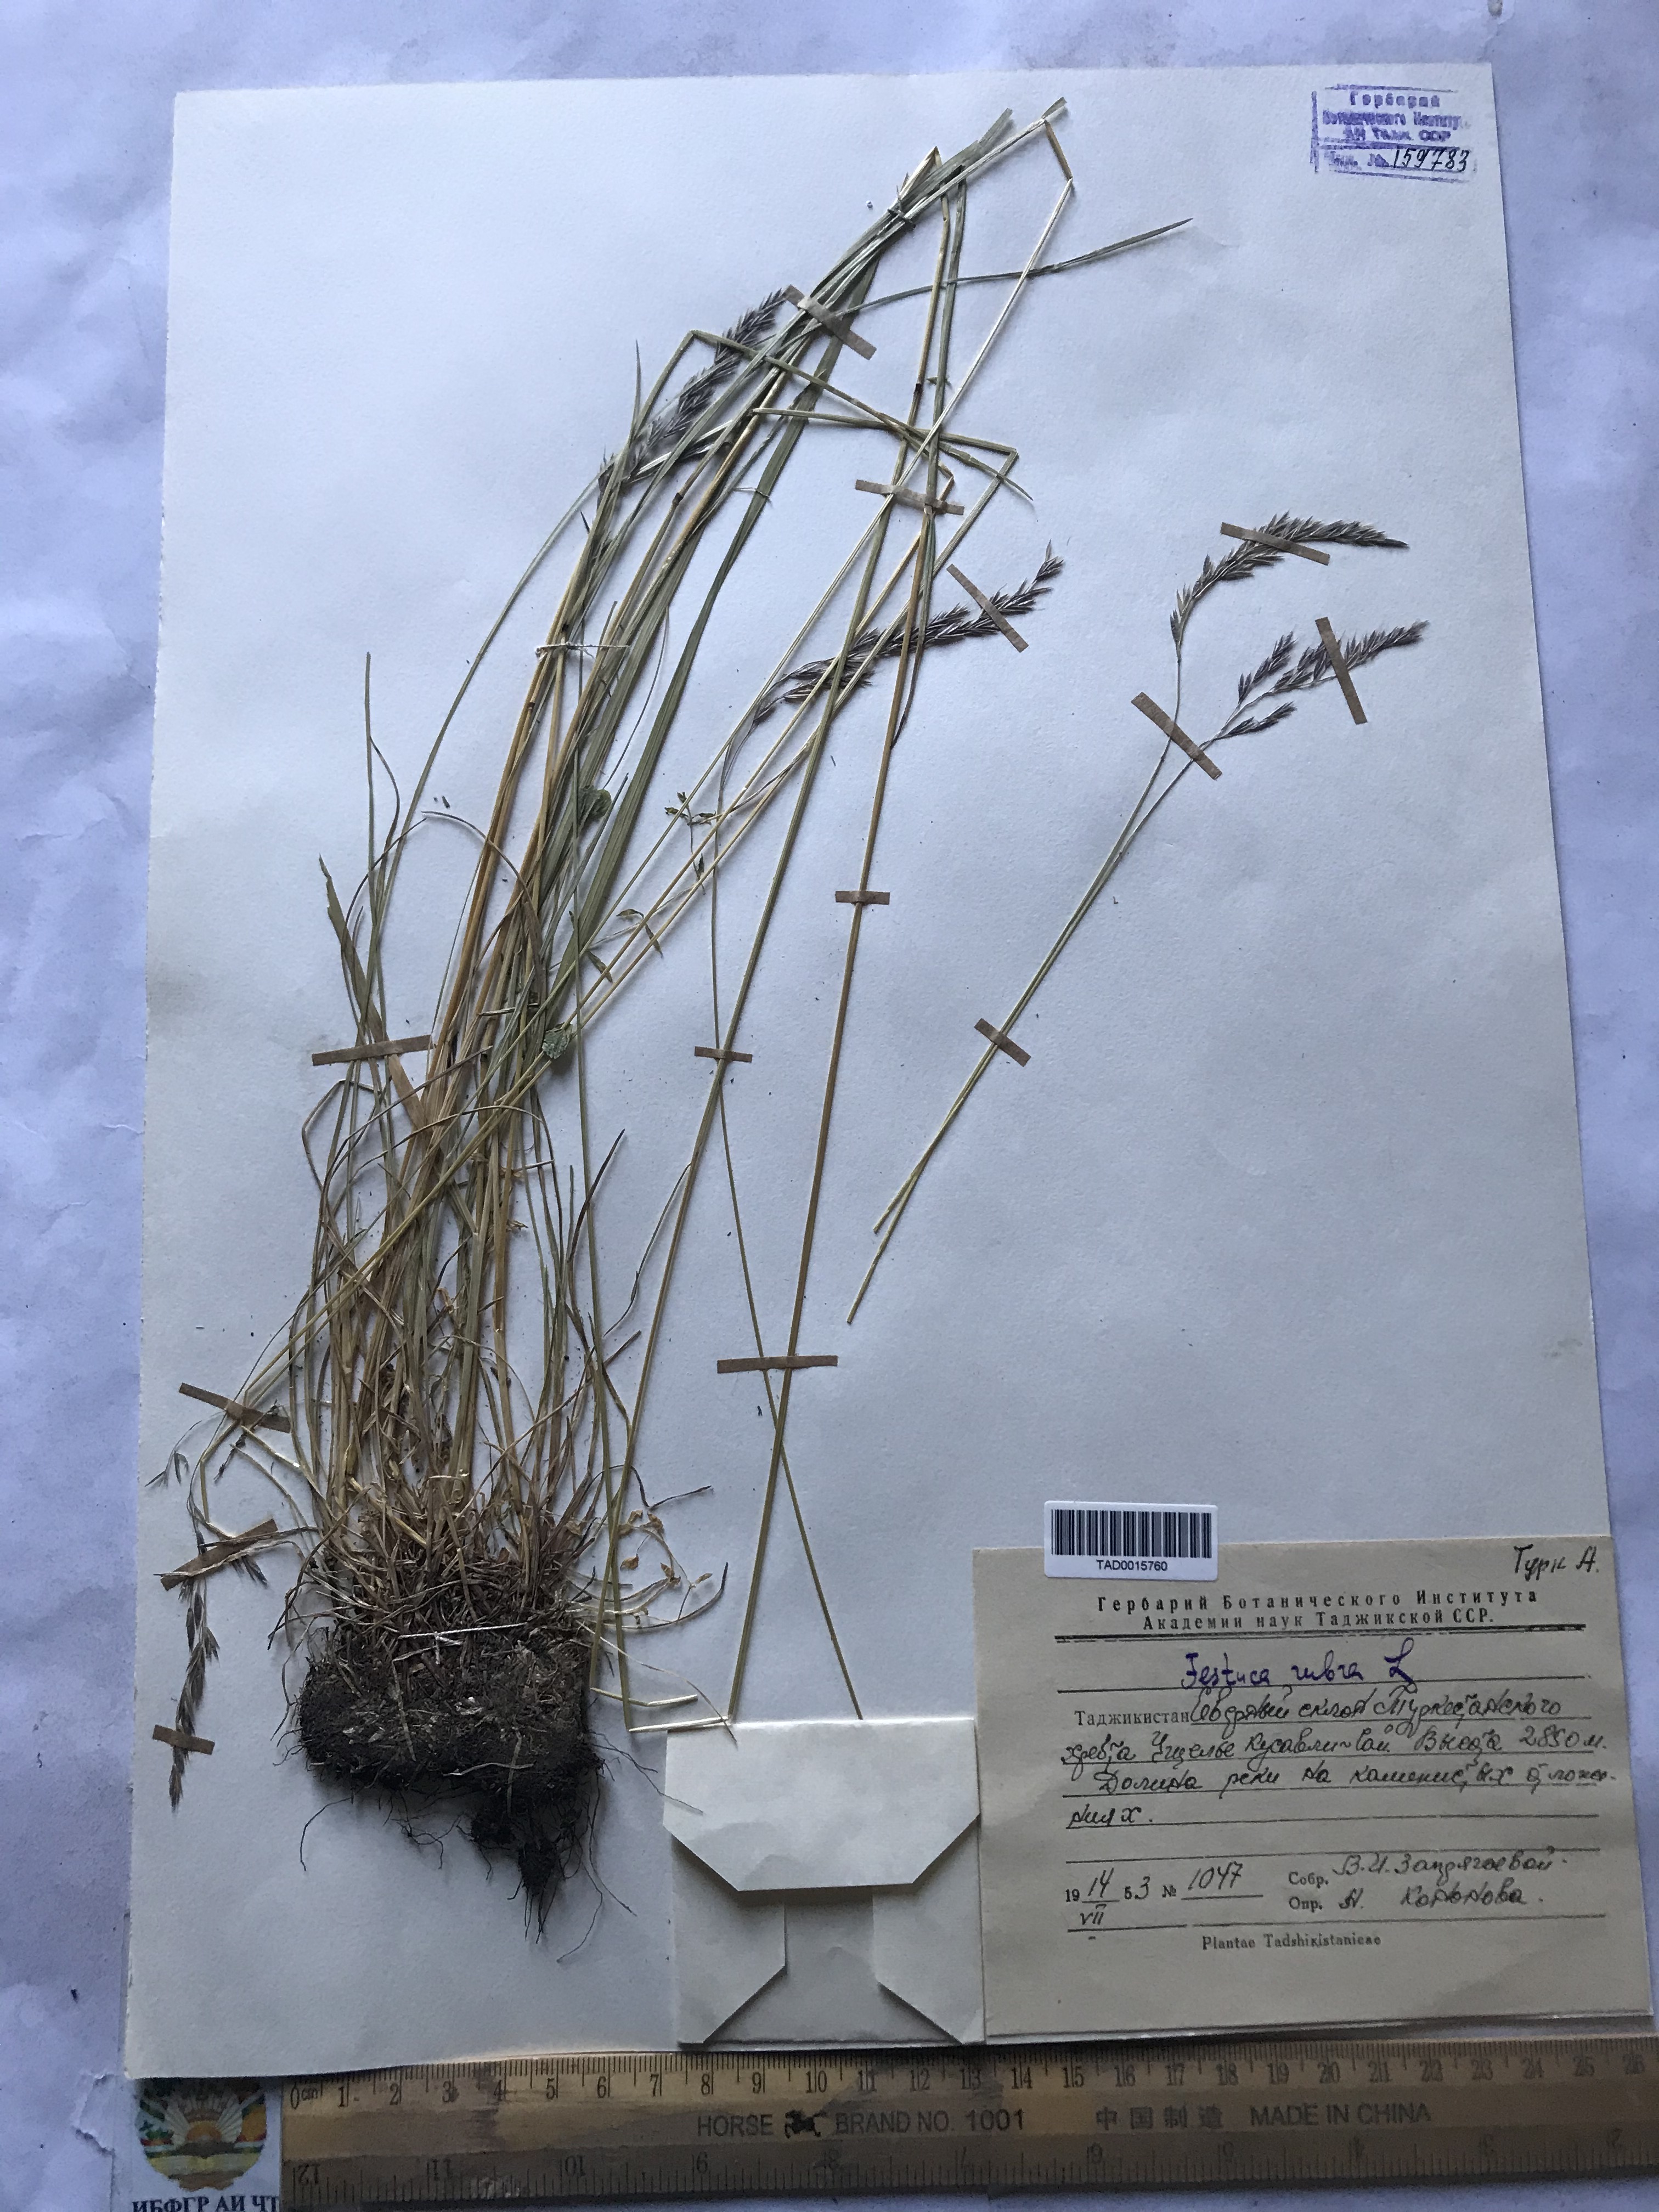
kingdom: Plantae
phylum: Tracheophyta
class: Liliopsida
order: Poales
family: Poaceae
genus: Festuca
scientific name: Festuca rubra
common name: Red fescue
